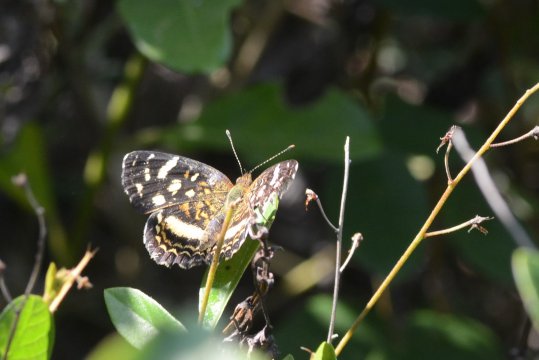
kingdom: Animalia
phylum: Arthropoda
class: Insecta
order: Lepidoptera
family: Nymphalidae
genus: Anthanassa
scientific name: Anthanassa tulcis
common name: Pale-banded Crescent
